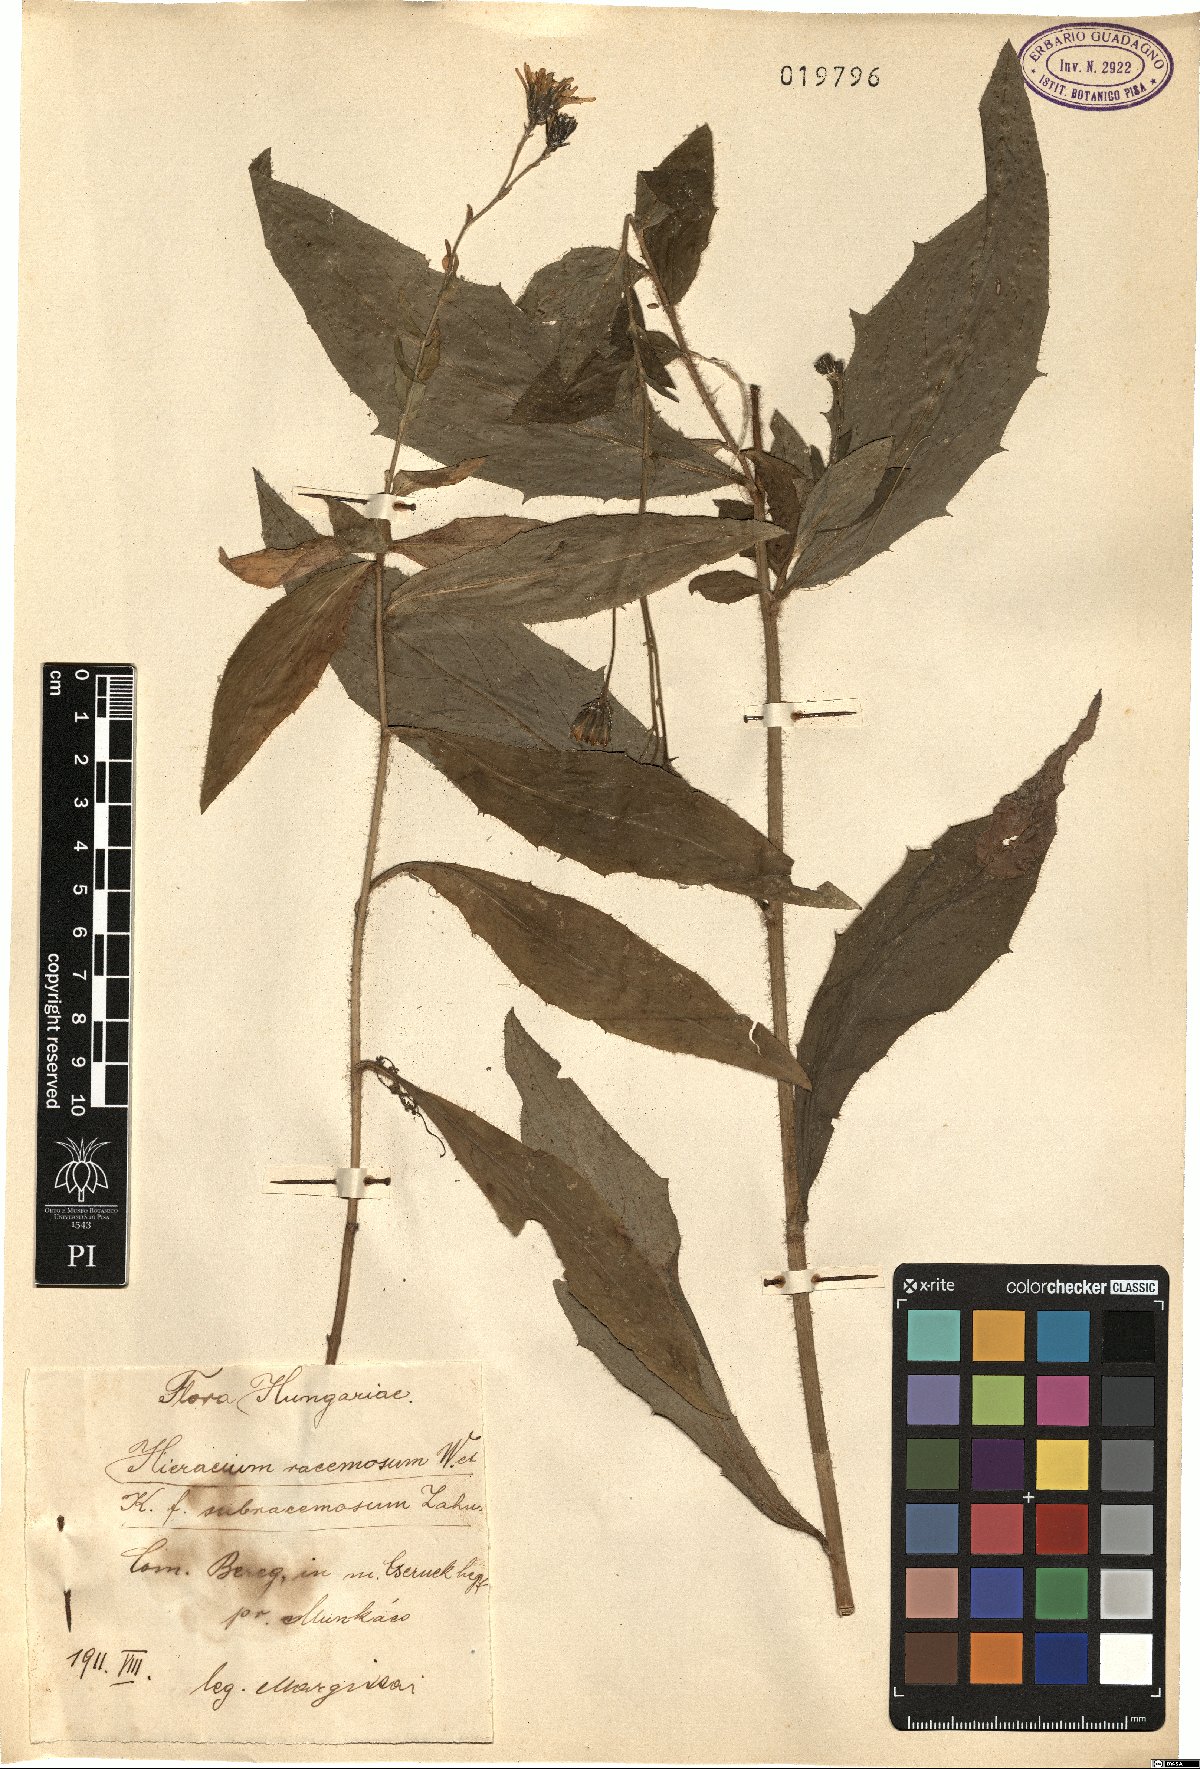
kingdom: Plantae
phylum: Tracheophyta
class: Magnoliopsida
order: Asterales
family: Asteraceae
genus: Hieracium
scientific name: Hieracium racemosum
